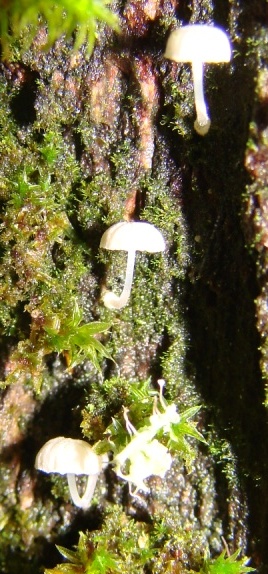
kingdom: Fungi
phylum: Basidiomycota
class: Agaricomycetes
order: Agaricales
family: Mycenaceae
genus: Mycena
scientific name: Mycena clavularis
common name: dunskivet huesvamp
